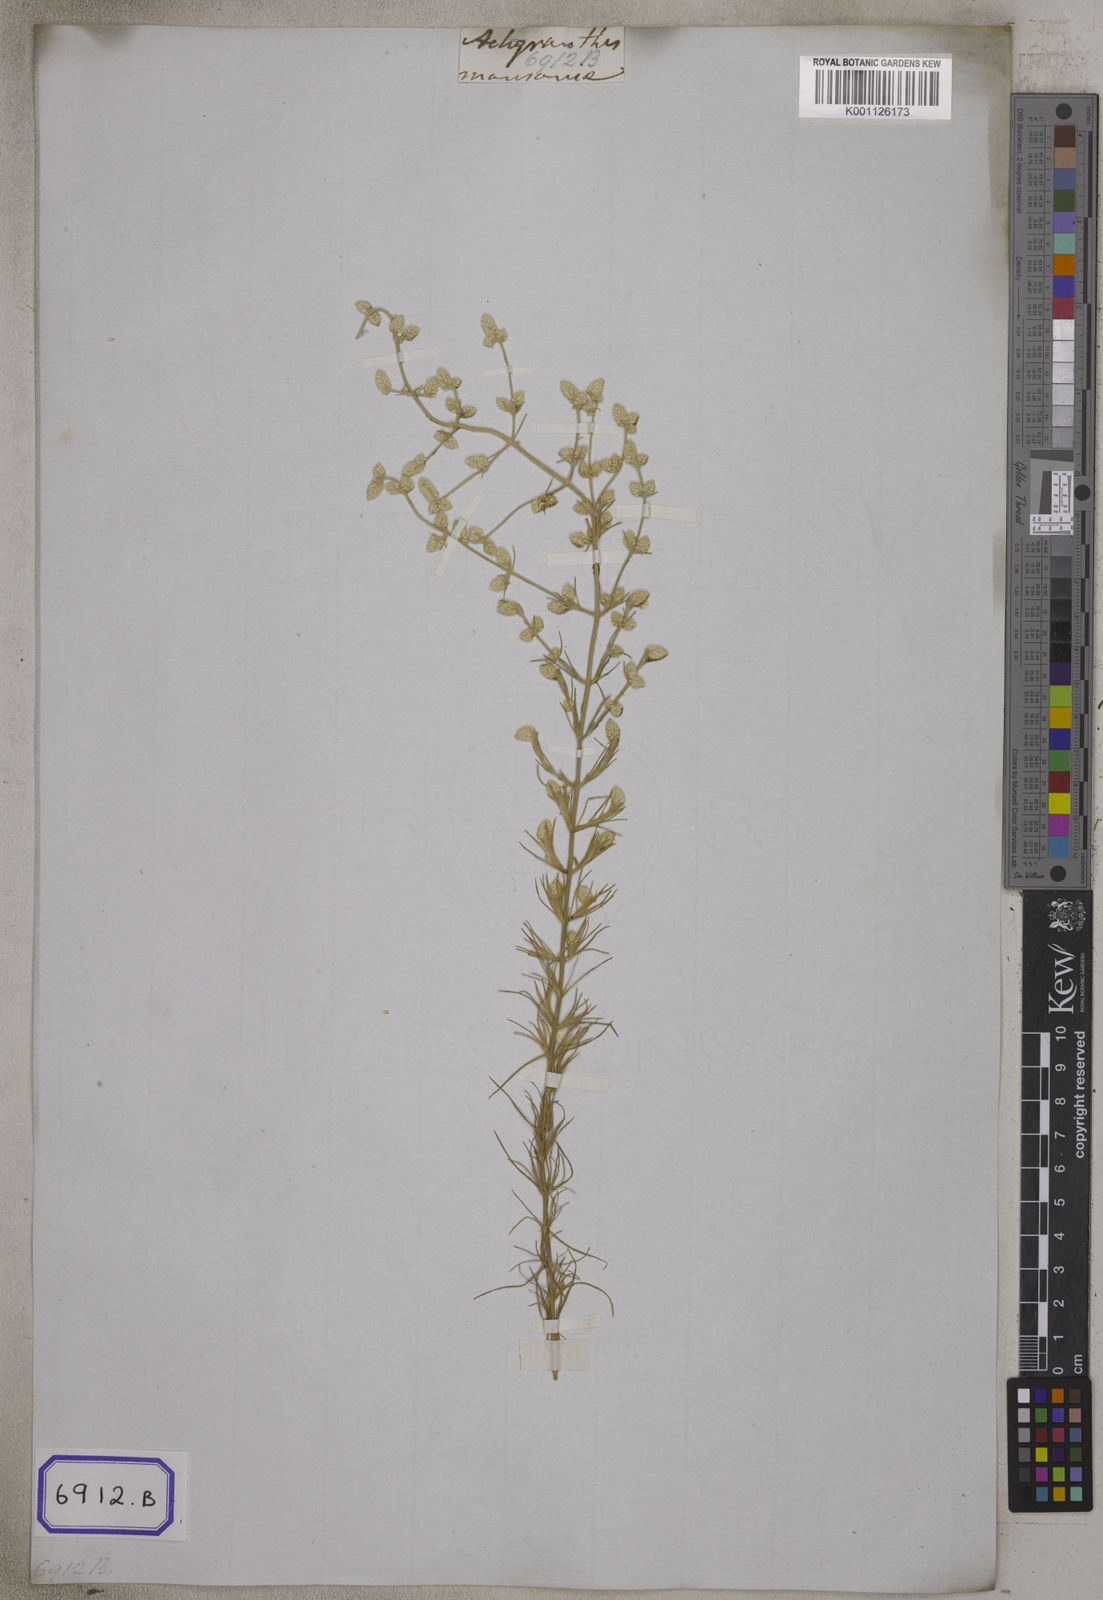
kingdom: Plantae
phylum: Tracheophyta
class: Magnoliopsida
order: Caryophyllales
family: Amaranthaceae
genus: Aerva
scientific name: Aerva
